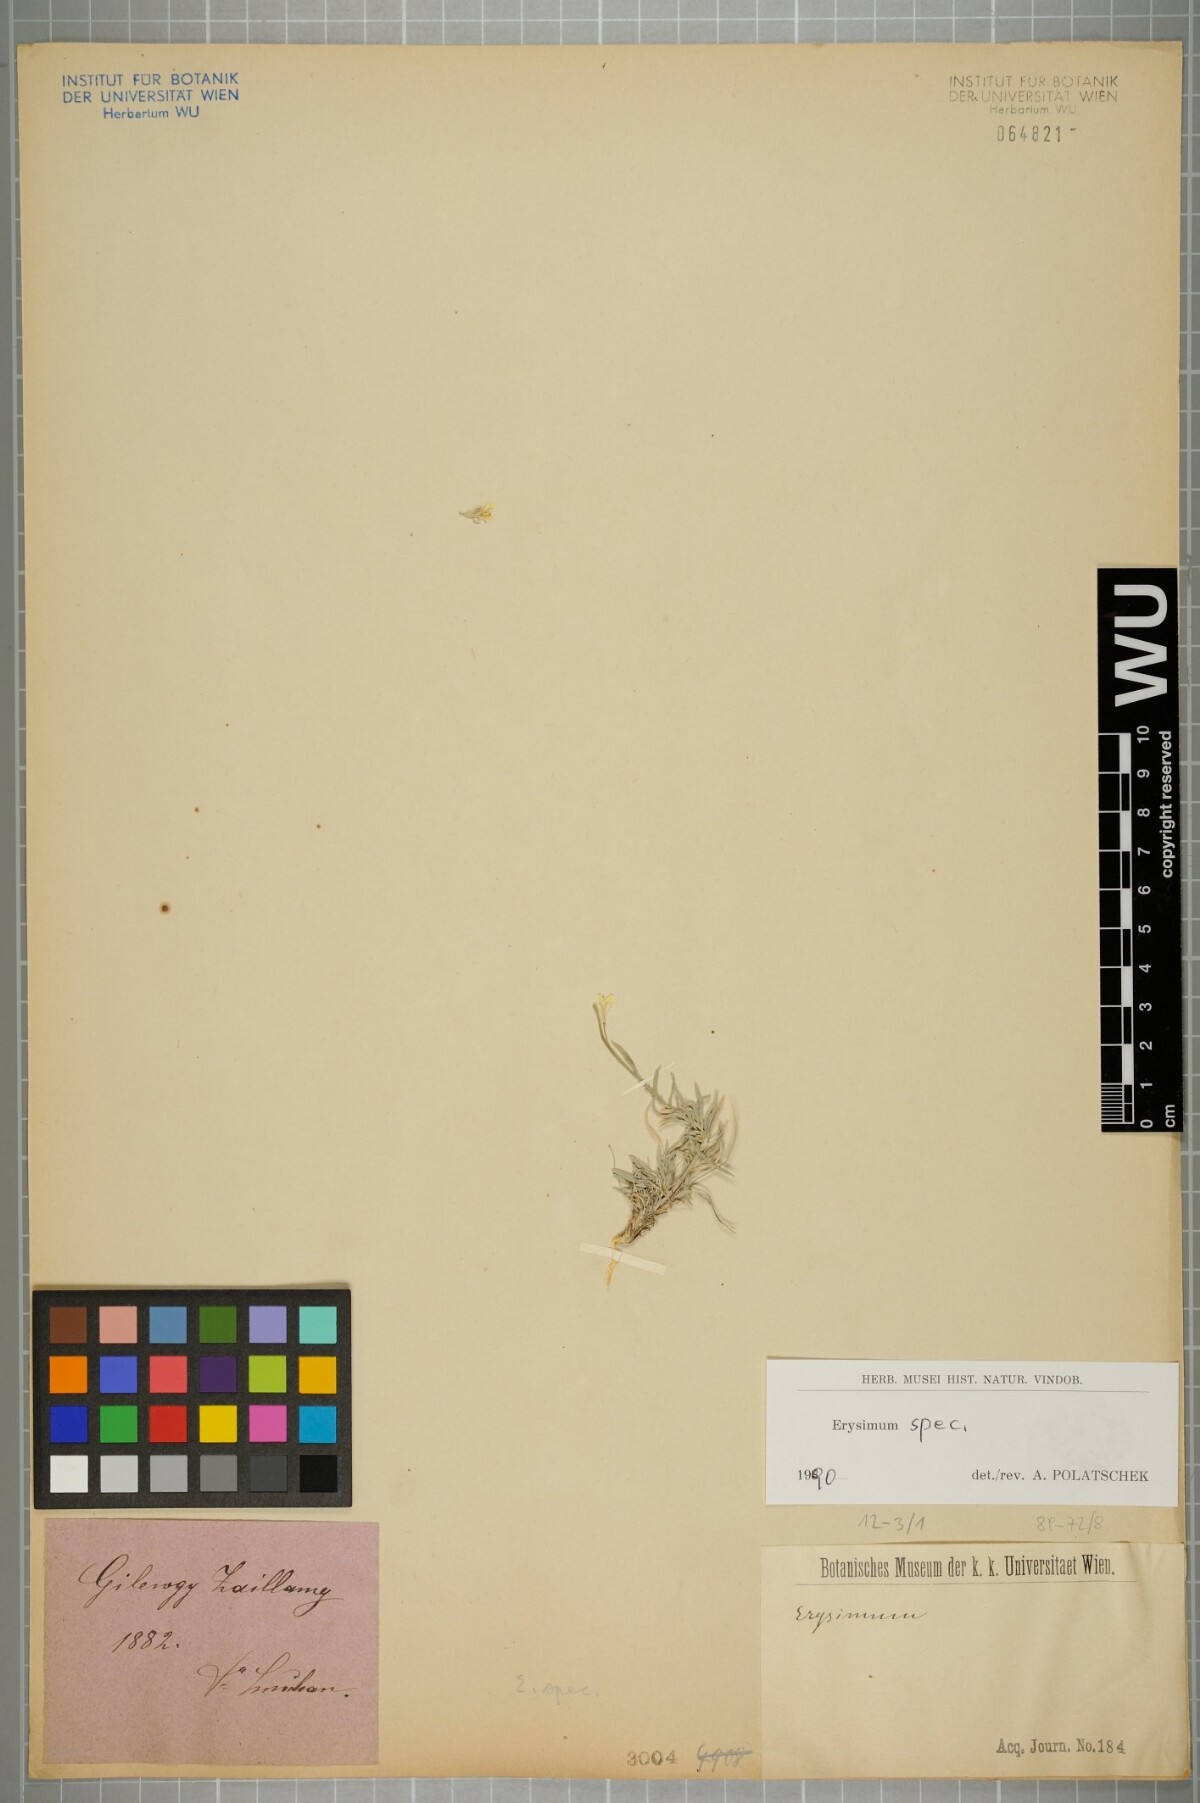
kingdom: Plantae
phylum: Tracheophyta
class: Magnoliopsida
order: Brassicales
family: Brassicaceae
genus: Erysimum
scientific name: Erysimum
